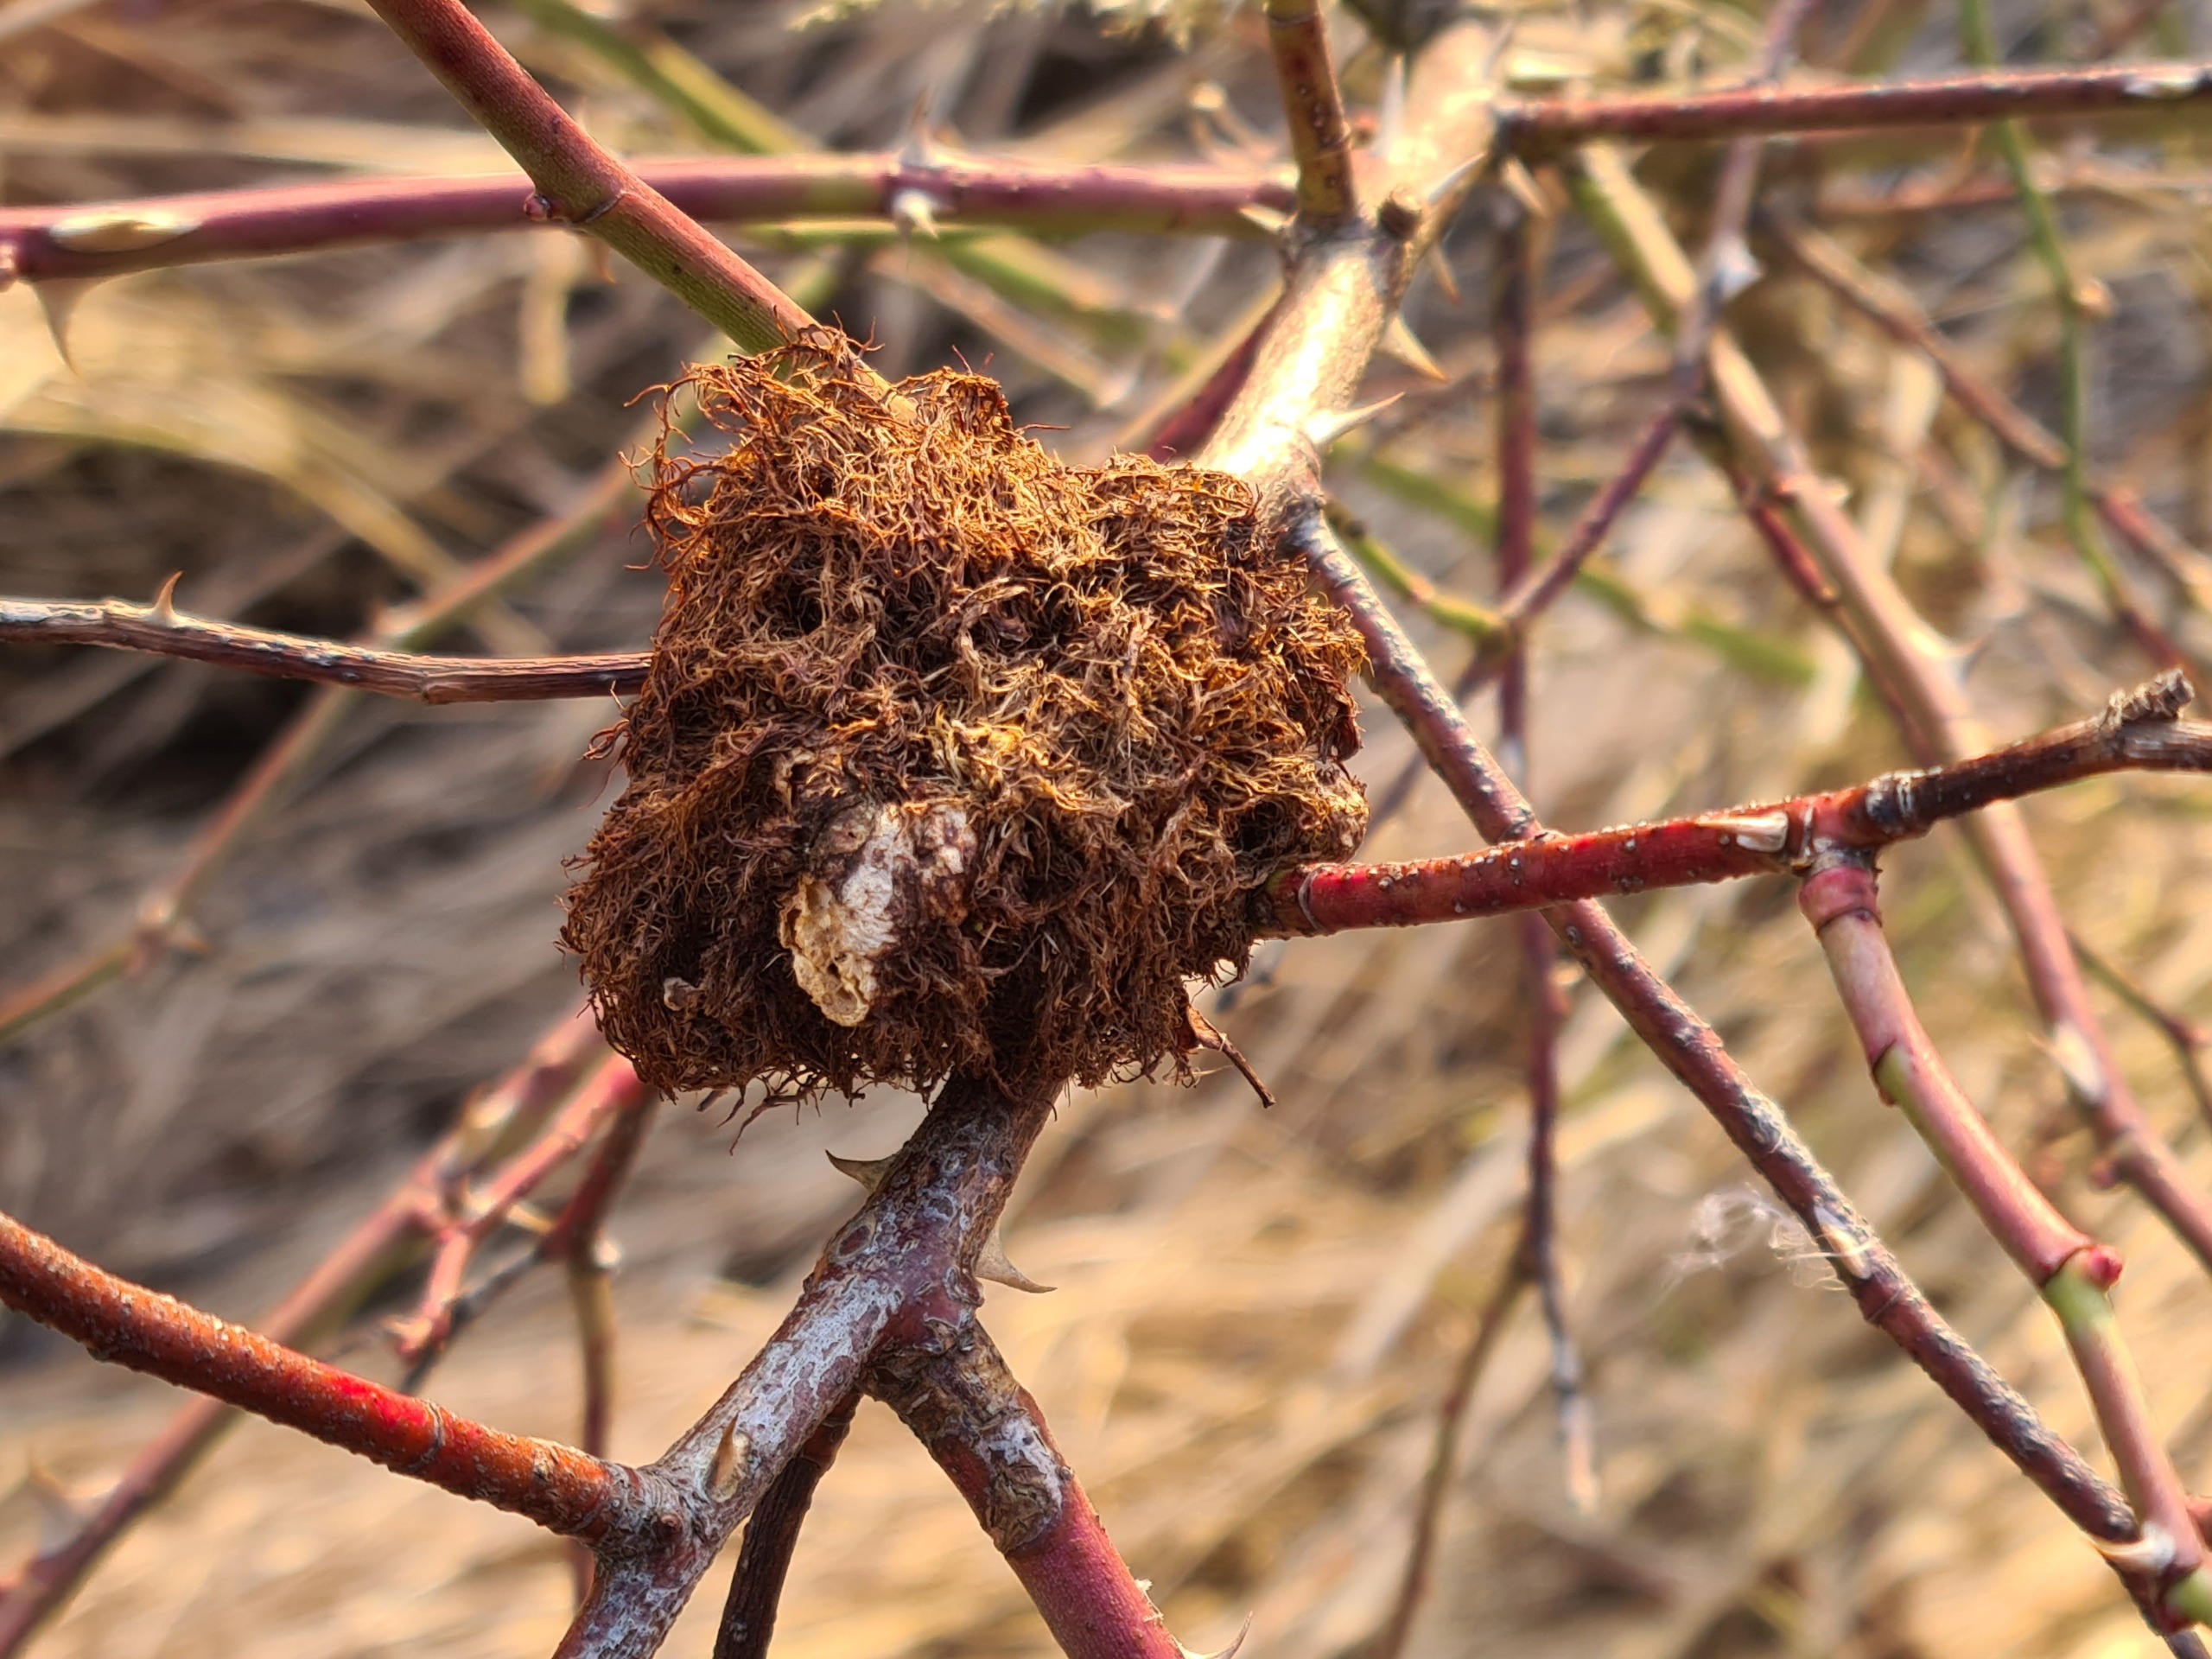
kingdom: Animalia
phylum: Arthropoda
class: Insecta
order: Hymenoptera
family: Cynipidae
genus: Diplolepis
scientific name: Diplolepis rosae
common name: Bedeguargalhveps
